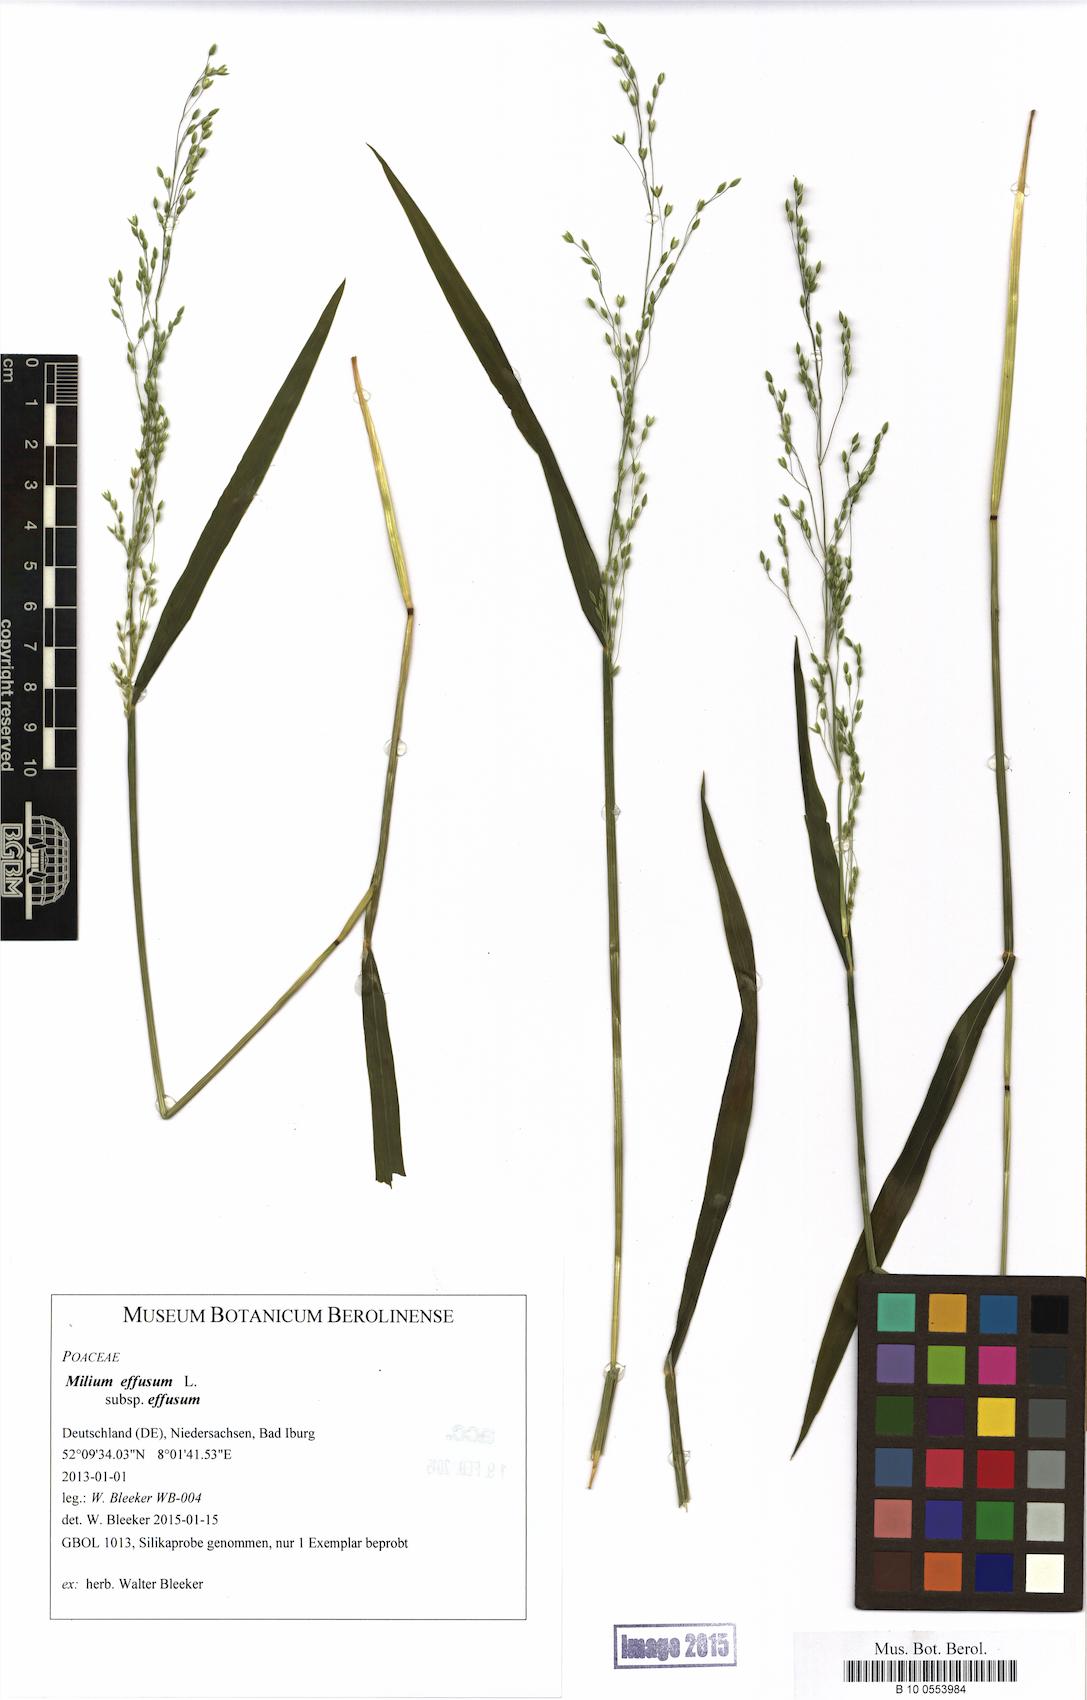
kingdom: Plantae
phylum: Tracheophyta
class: Liliopsida
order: Poales
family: Poaceae
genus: Milium
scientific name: Milium effusum
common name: Wood millet
